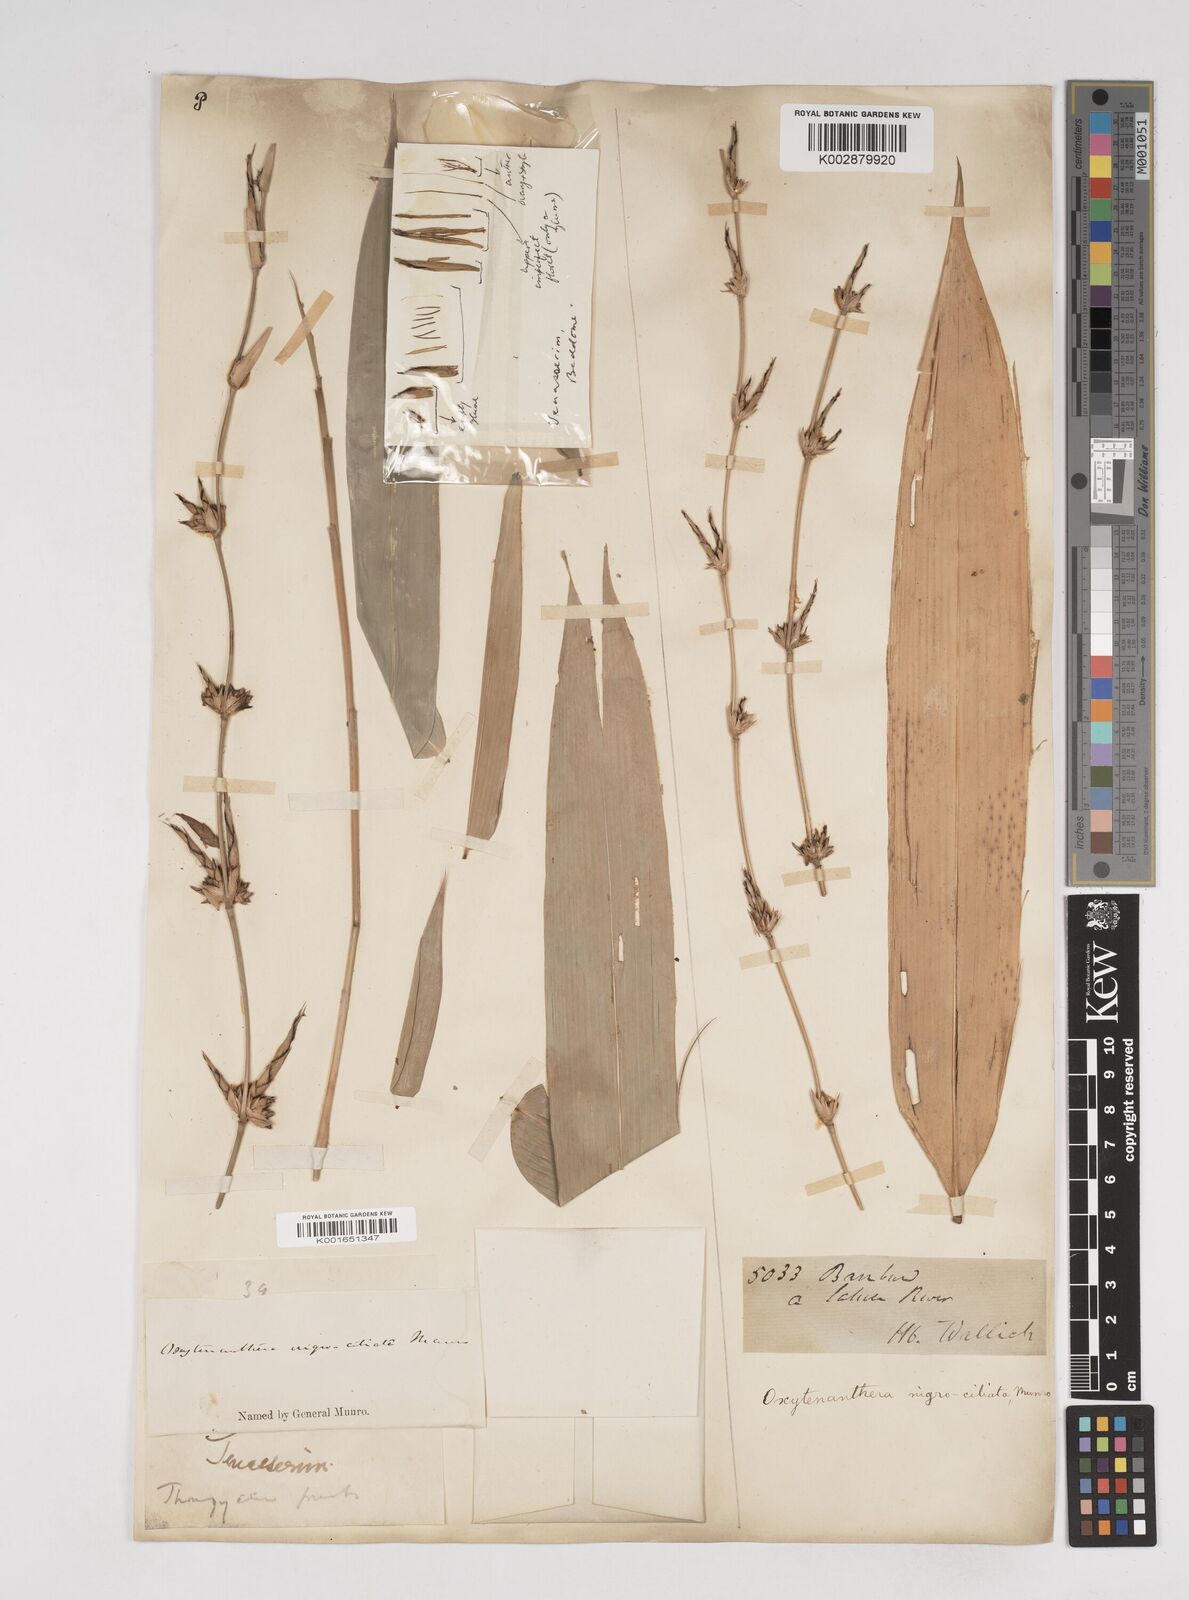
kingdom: Plantae
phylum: Tracheophyta
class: Liliopsida
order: Poales
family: Poaceae
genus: Gigantochloa
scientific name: Gigantochloa nigrociliata
